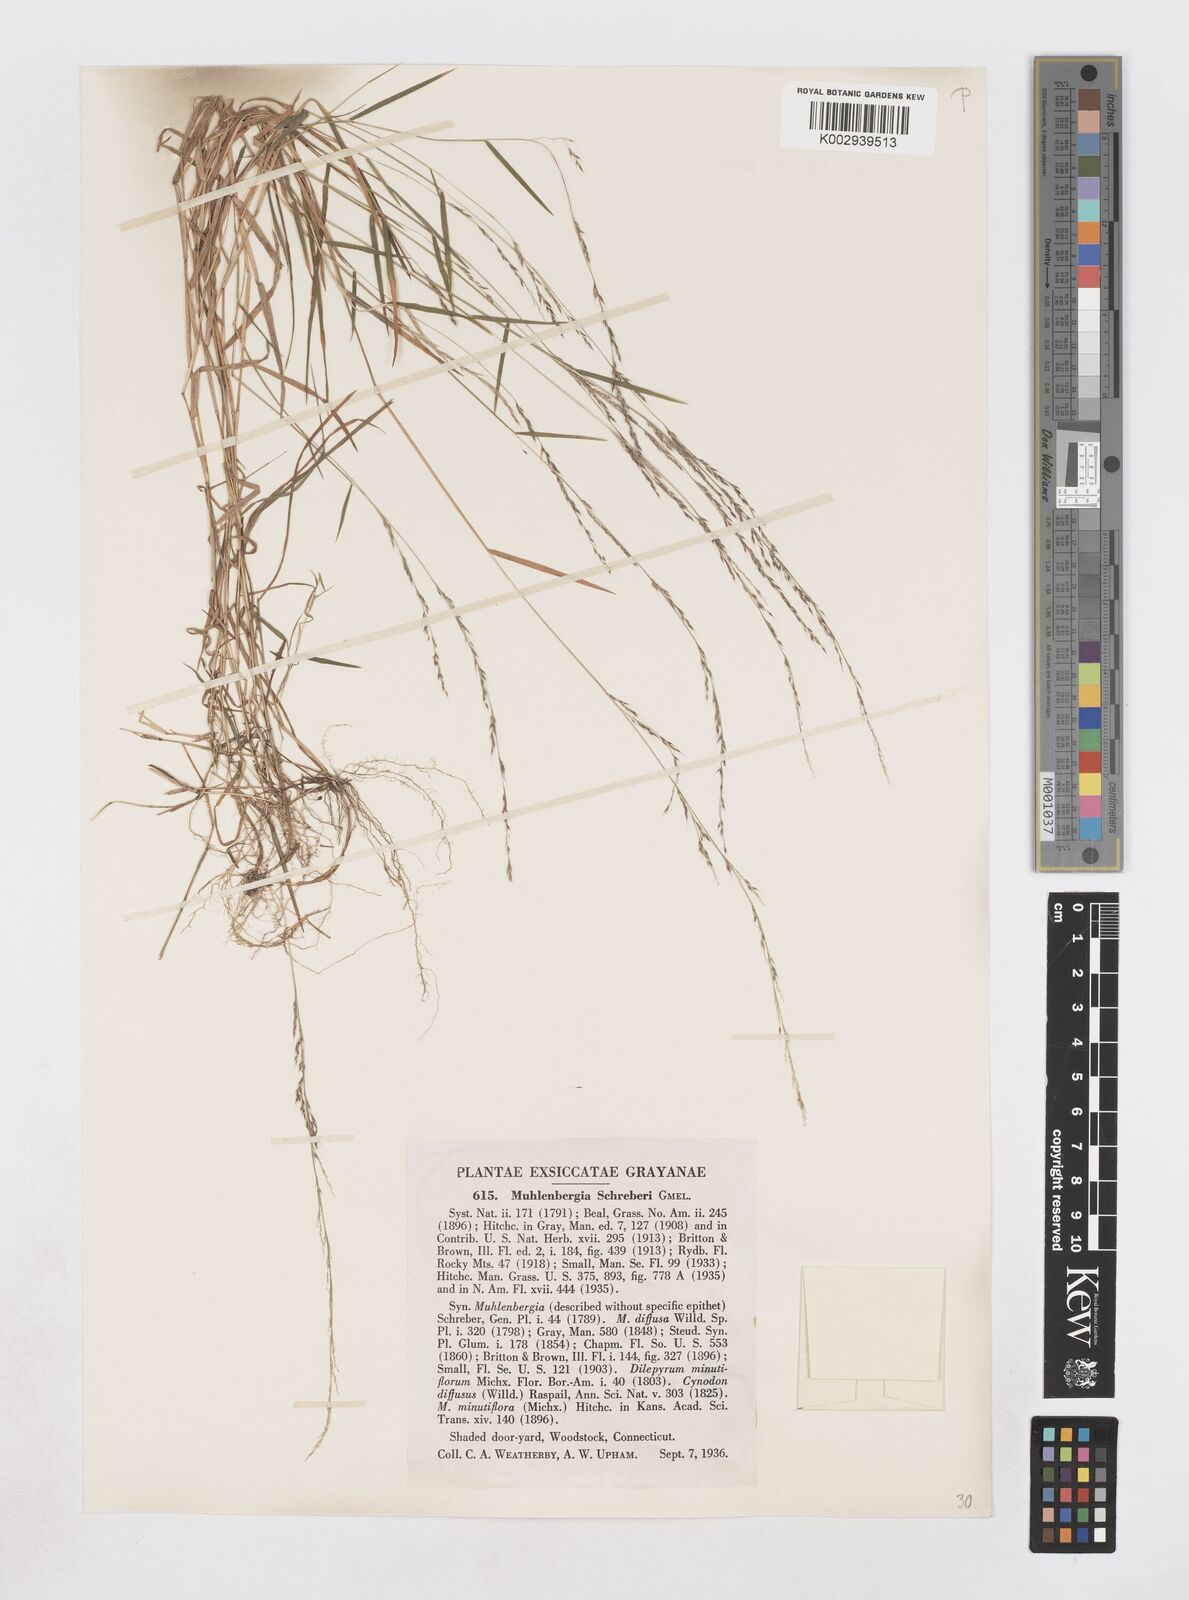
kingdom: Plantae
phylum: Tracheophyta
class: Liliopsida
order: Poales
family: Poaceae
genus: Muhlenbergia
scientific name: Muhlenbergia schreberi
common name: Nimblewill
